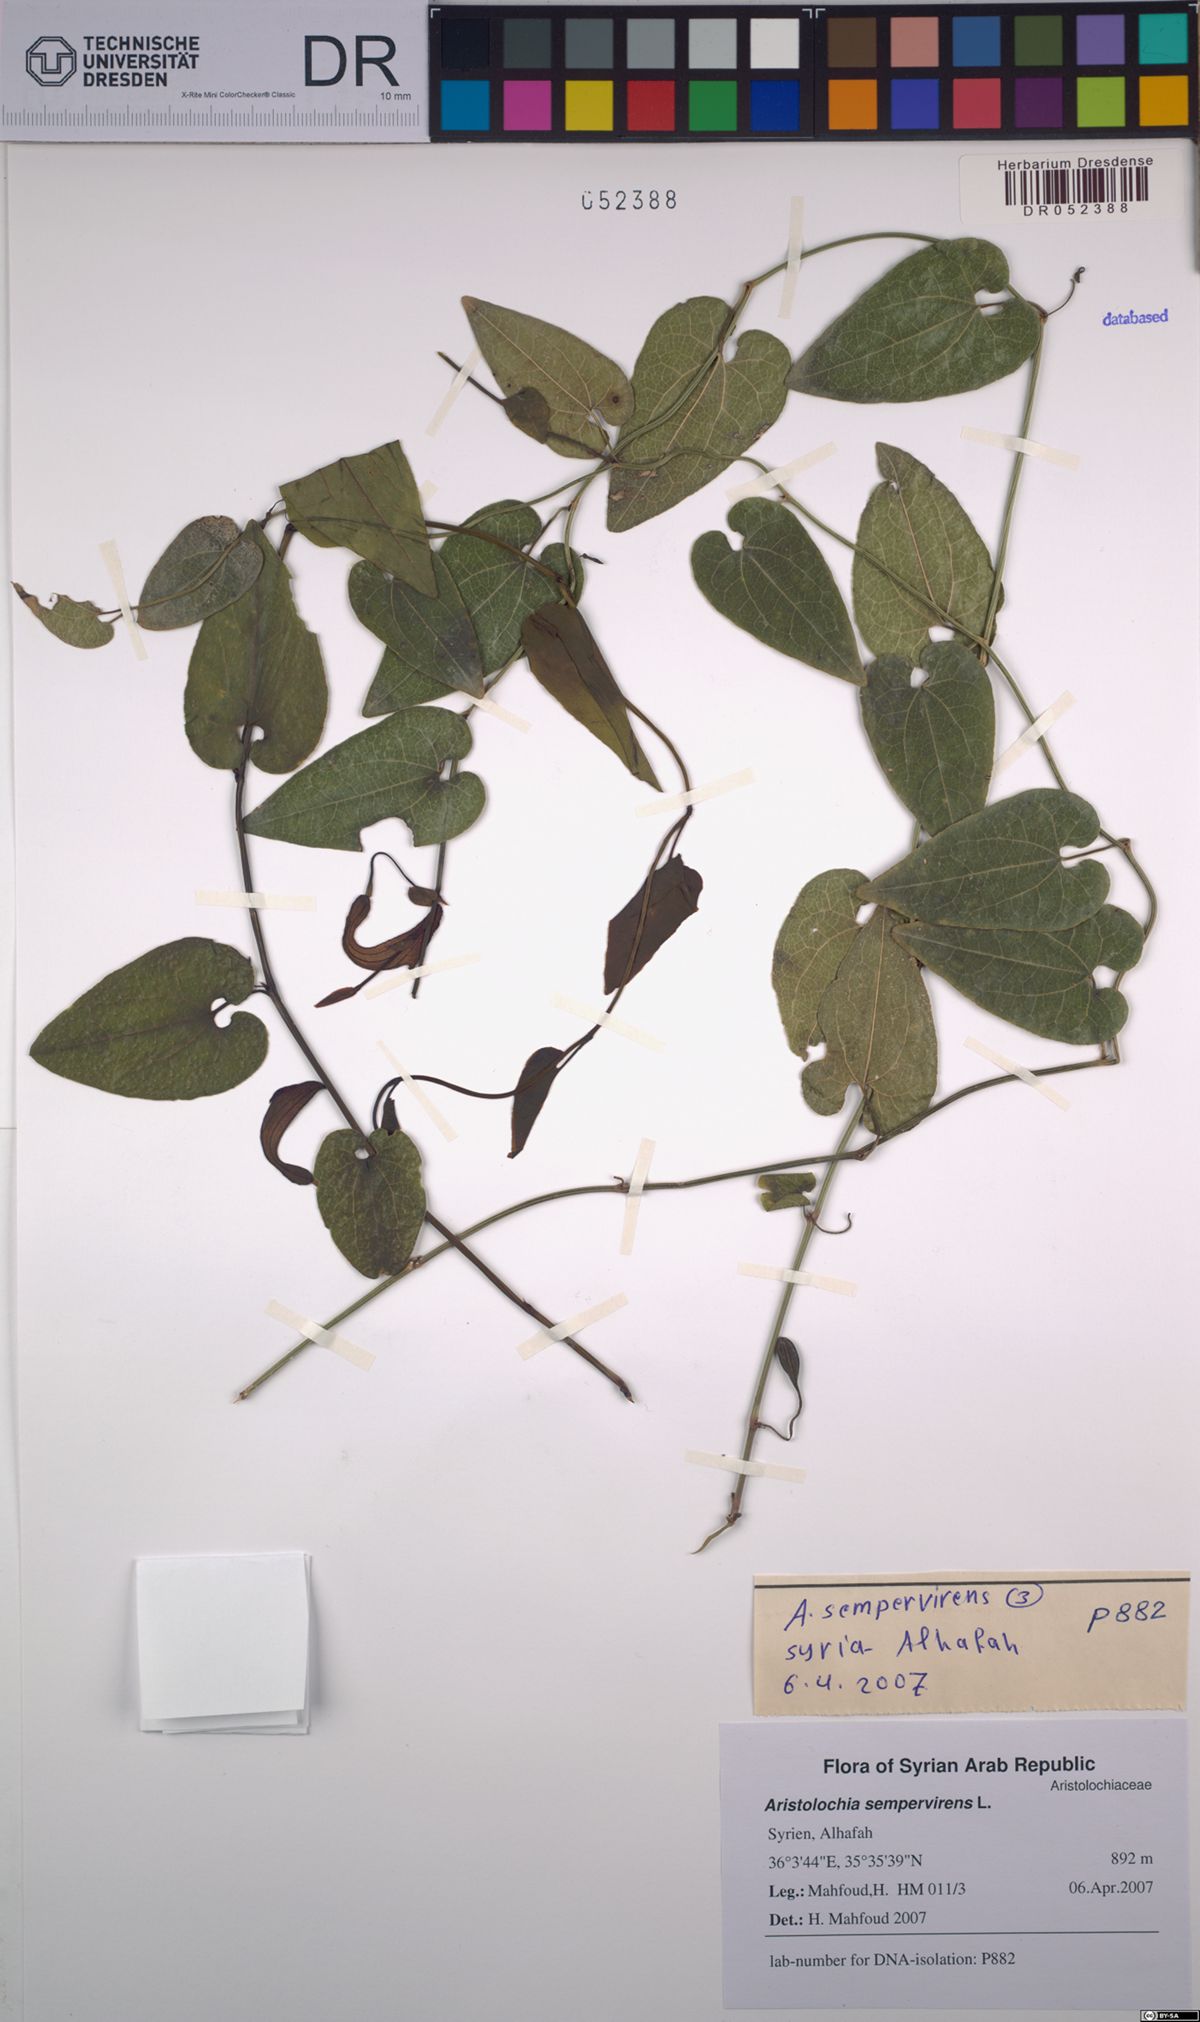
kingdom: Plantae
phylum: Tracheophyta
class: Magnoliopsida
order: Piperales
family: Aristolochiaceae
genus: Aristolochia
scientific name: Aristolochia sempervirens
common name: Long birthwort
